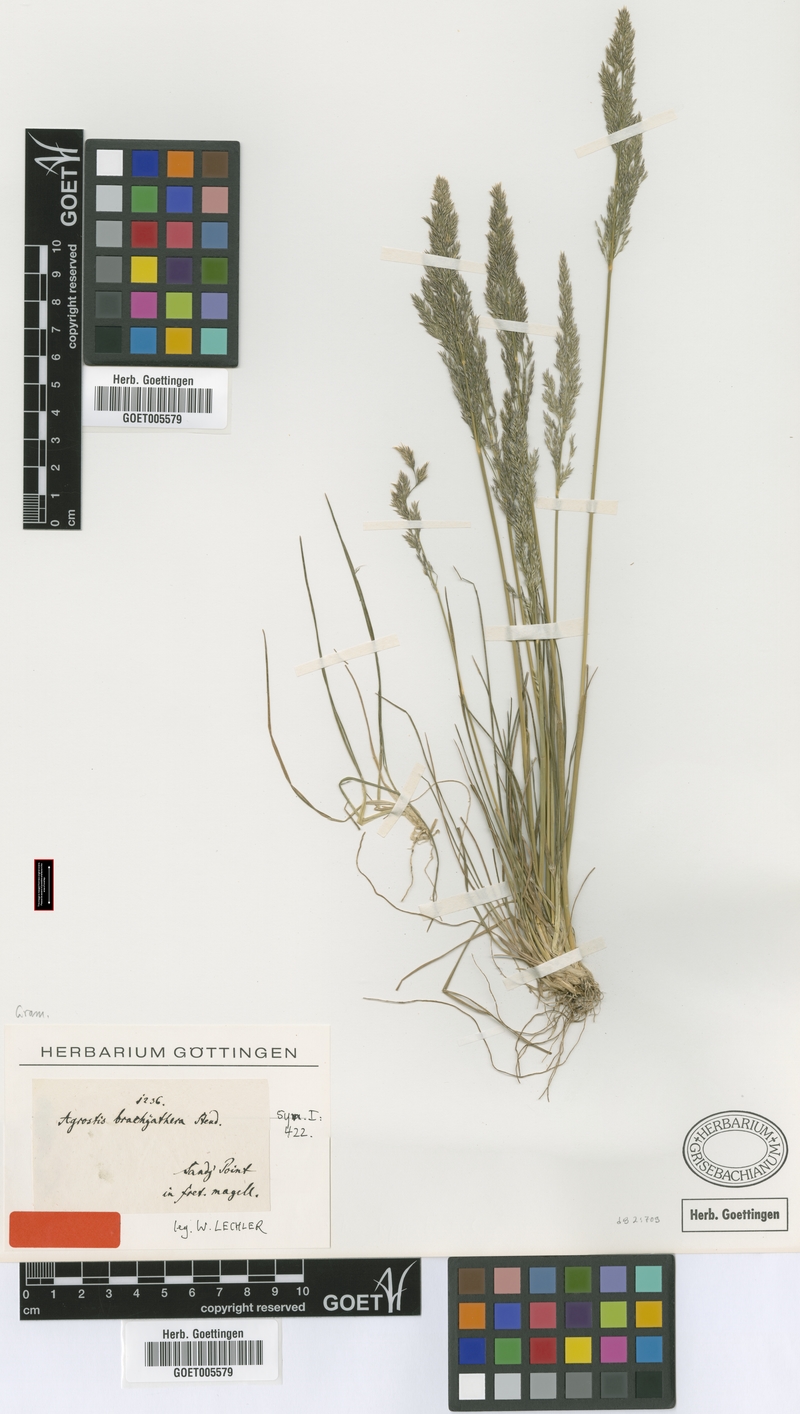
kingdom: Plantae
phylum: Tracheophyta
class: Liliopsida
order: Poales
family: Poaceae
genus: Agrostis
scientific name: Agrostis brachyathera
